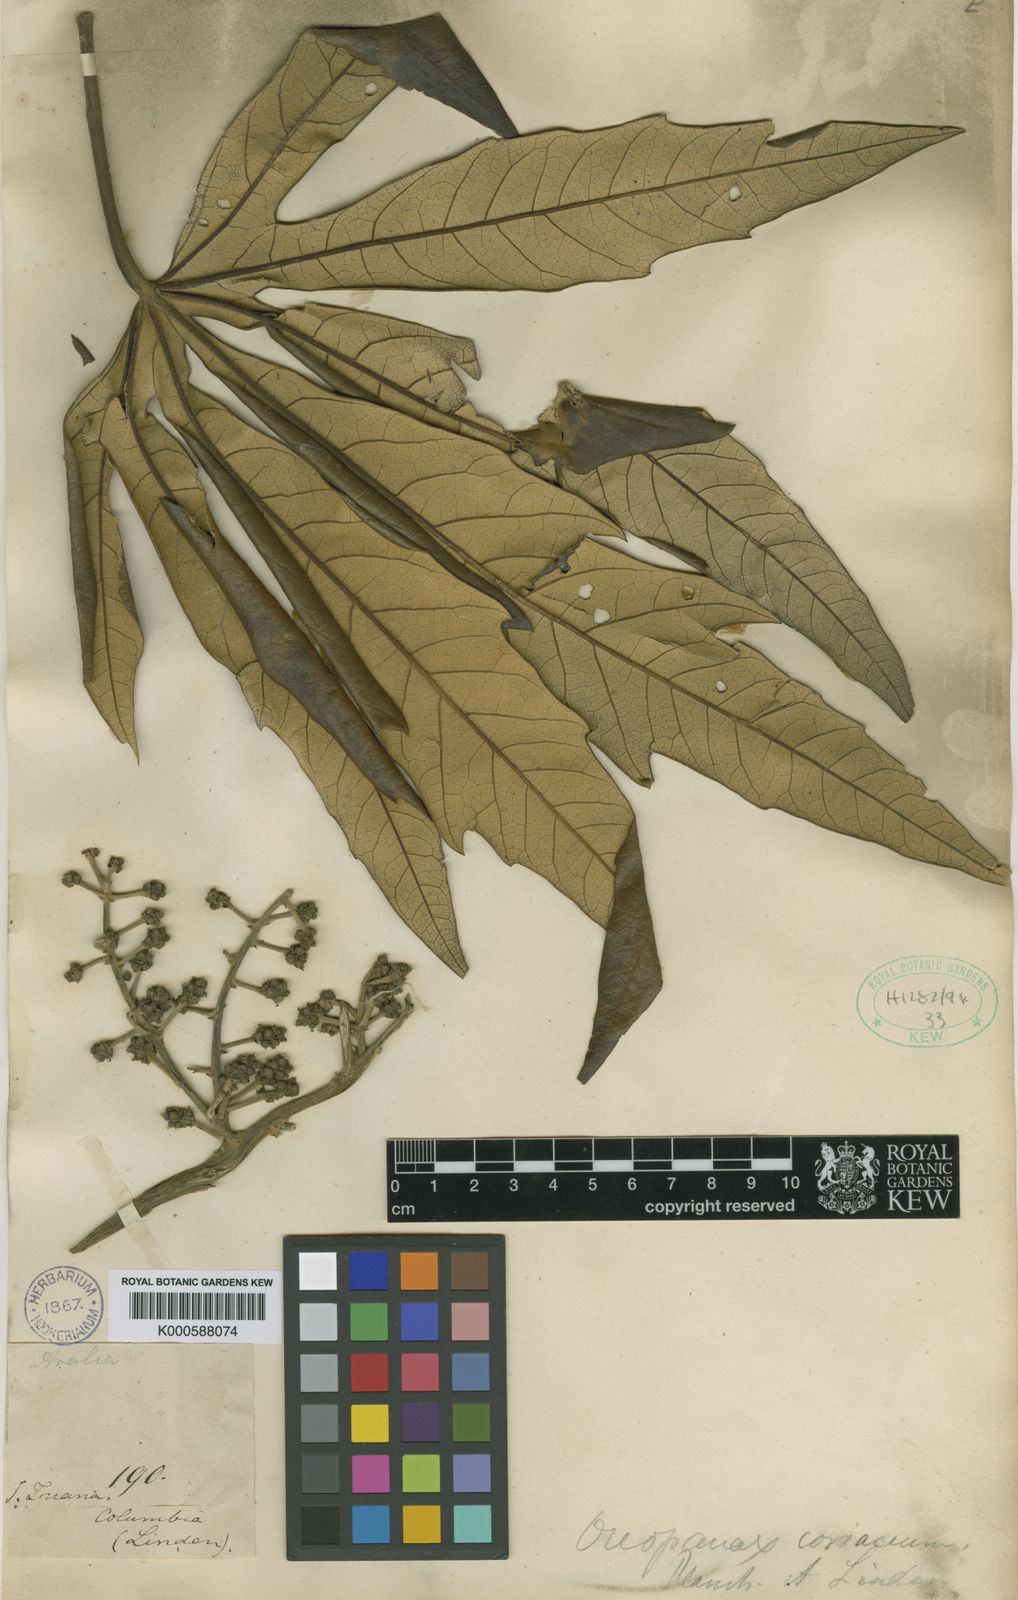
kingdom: Plantae
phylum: Tracheophyta
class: Magnoliopsida
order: Apiales
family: Araliaceae
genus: Oreopanax
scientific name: Oreopanax
